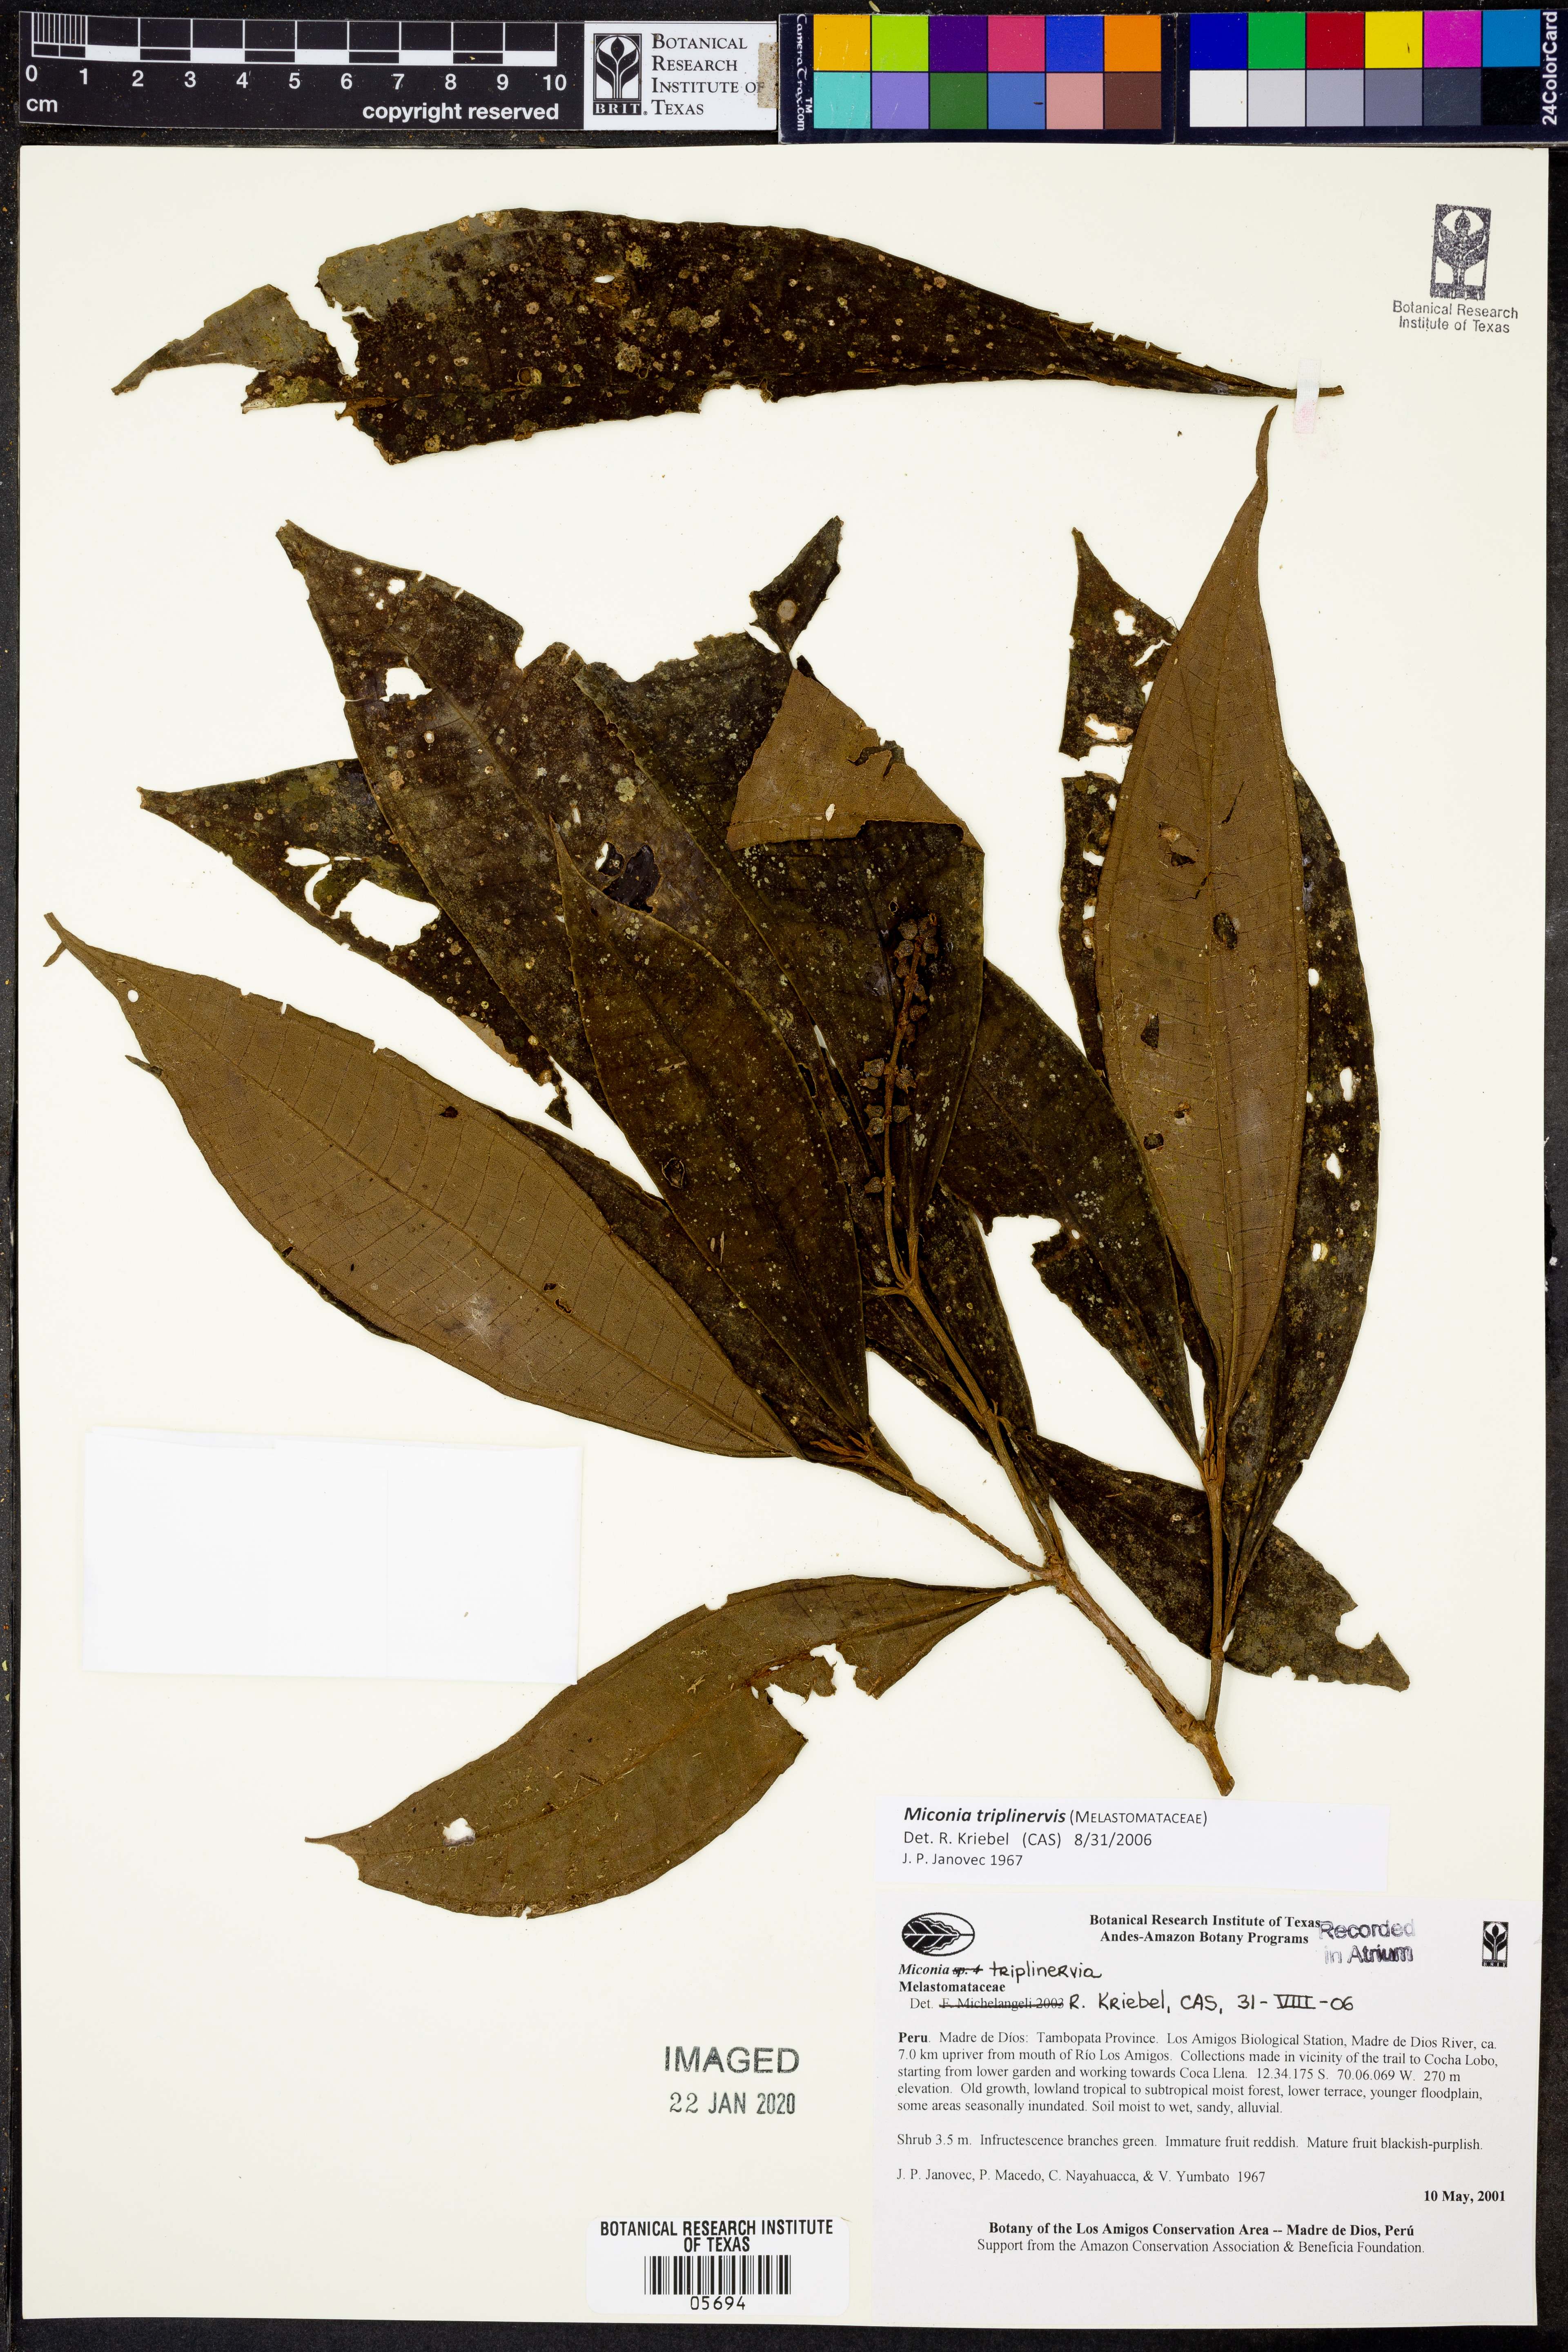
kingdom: Plantae
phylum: Tracheophyta
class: Magnoliopsida
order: Myrtales
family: Melastomataceae
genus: Miconia
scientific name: Miconia triplinervis
